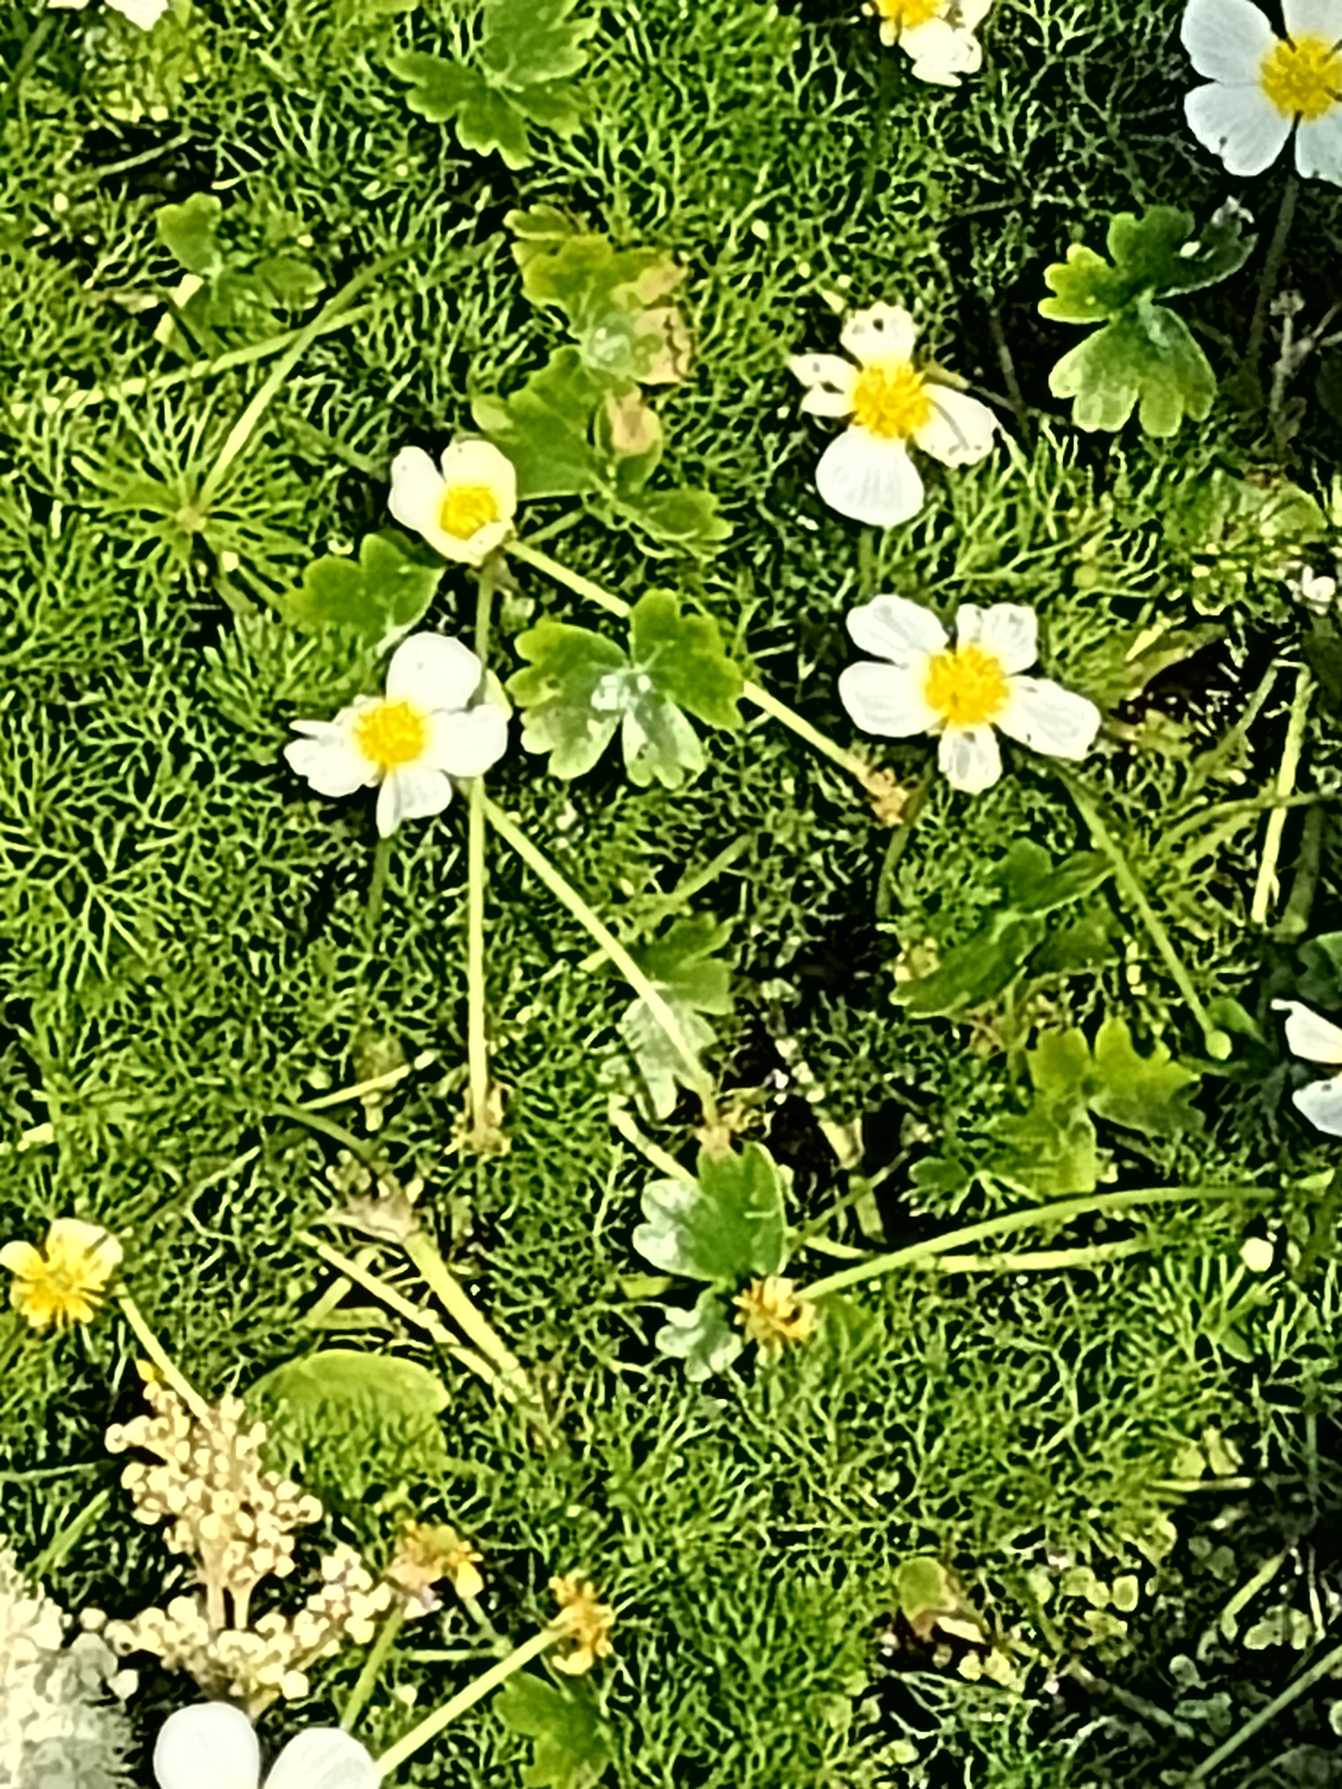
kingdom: Plantae
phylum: Tracheophyta
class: Magnoliopsida
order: Ranunculales
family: Ranunculaceae
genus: Ranunculus
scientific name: Ranunculus aquatilis
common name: Almindelig vandranunkel
